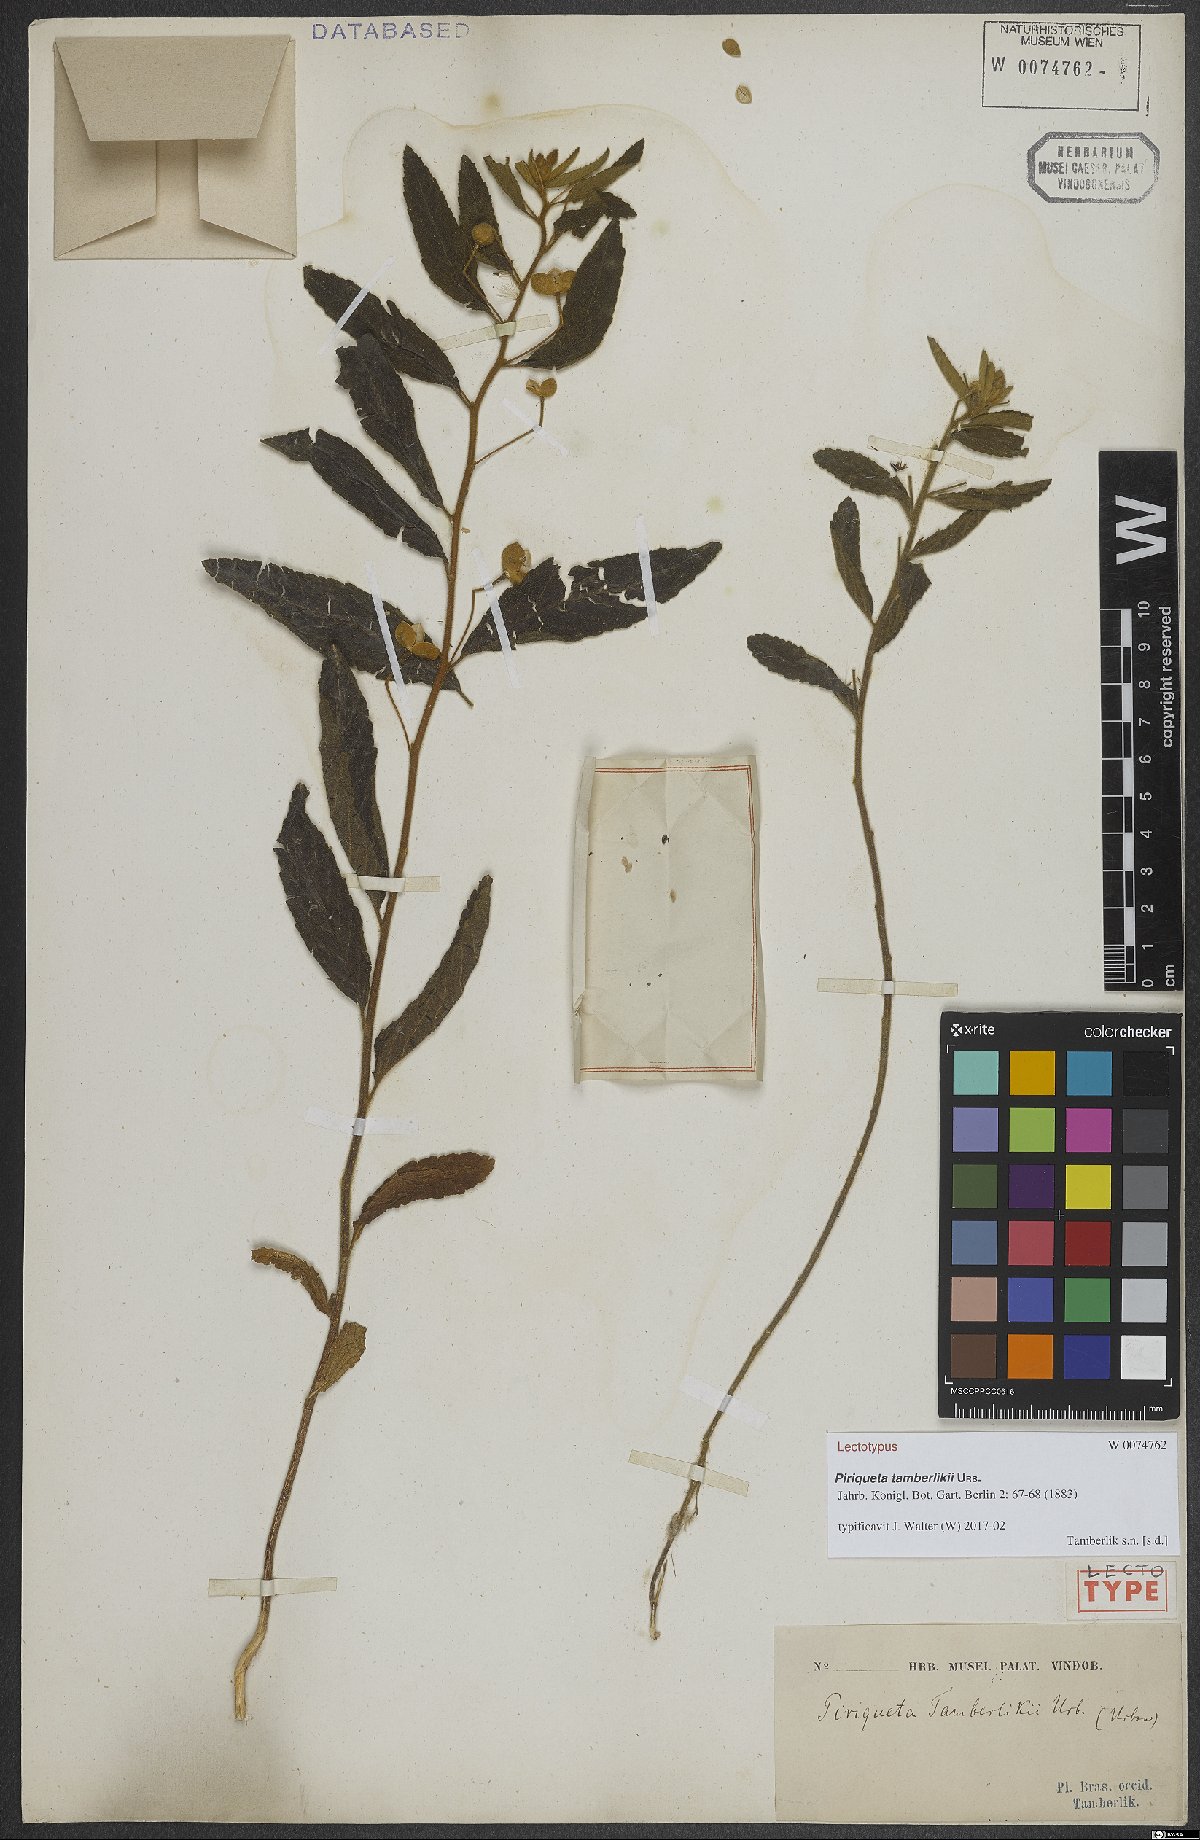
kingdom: Plantae
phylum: Tracheophyta
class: Magnoliopsida
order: Malpighiales
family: Turneraceae
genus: Piriqueta
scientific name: Piriqueta tamberlikii
